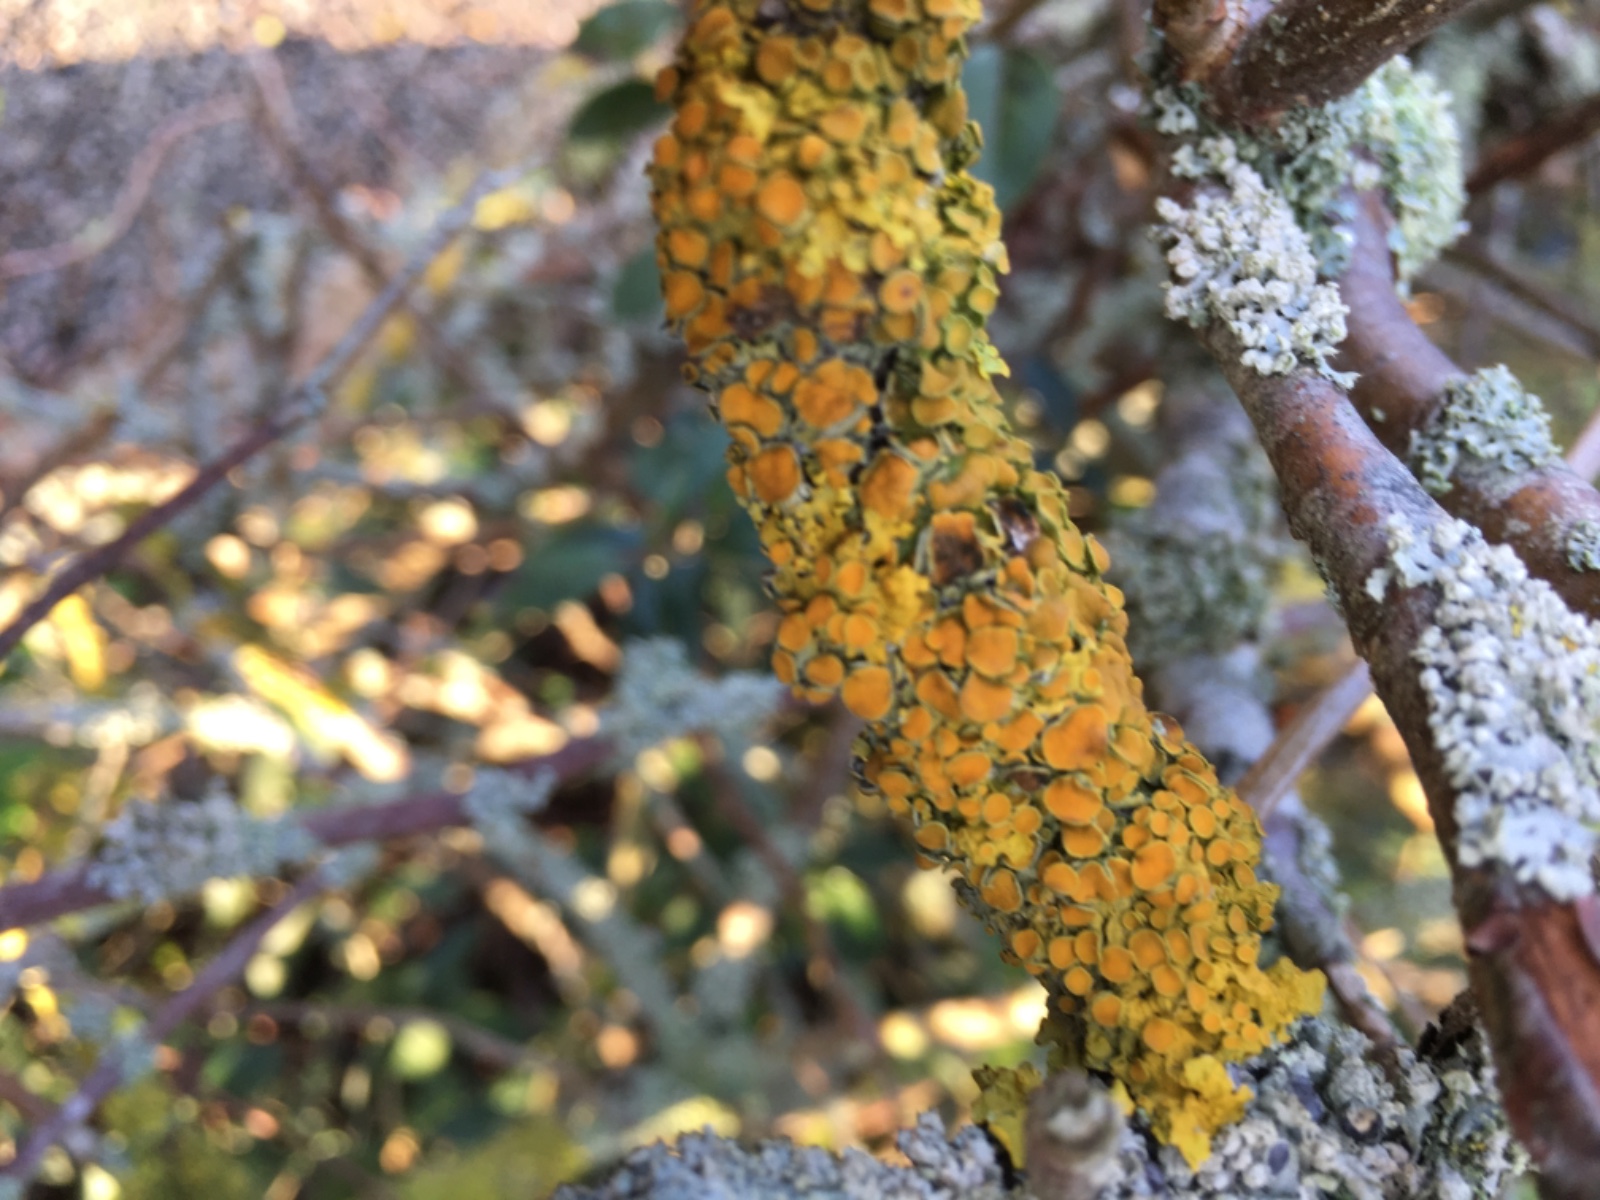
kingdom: Fungi
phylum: Ascomycota
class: Lecanoromycetes
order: Teloschistales
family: Teloschistaceae
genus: Xanthoria
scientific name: Xanthoria parietina
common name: almindelig væggelav
